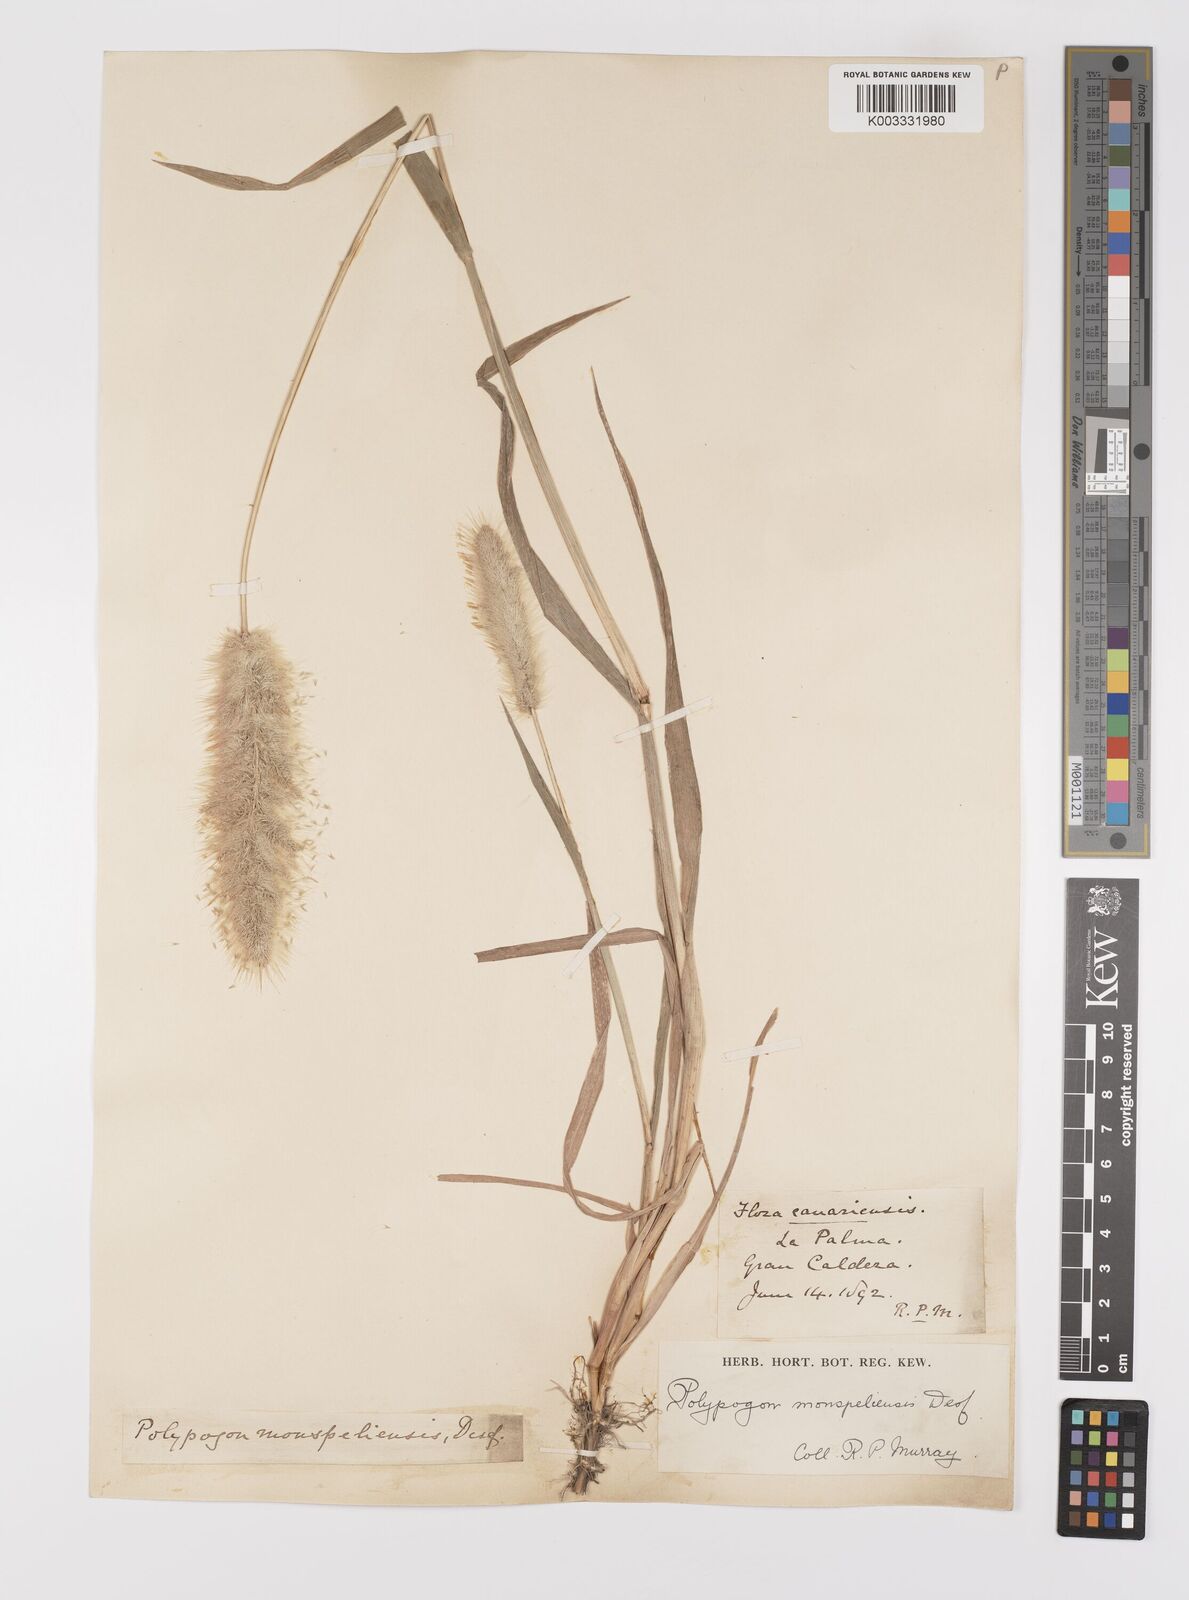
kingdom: Plantae
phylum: Tracheophyta
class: Liliopsida
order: Poales
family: Poaceae
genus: Polypogon
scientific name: Polypogon monspeliensis
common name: Annual rabbitsfoot grass
